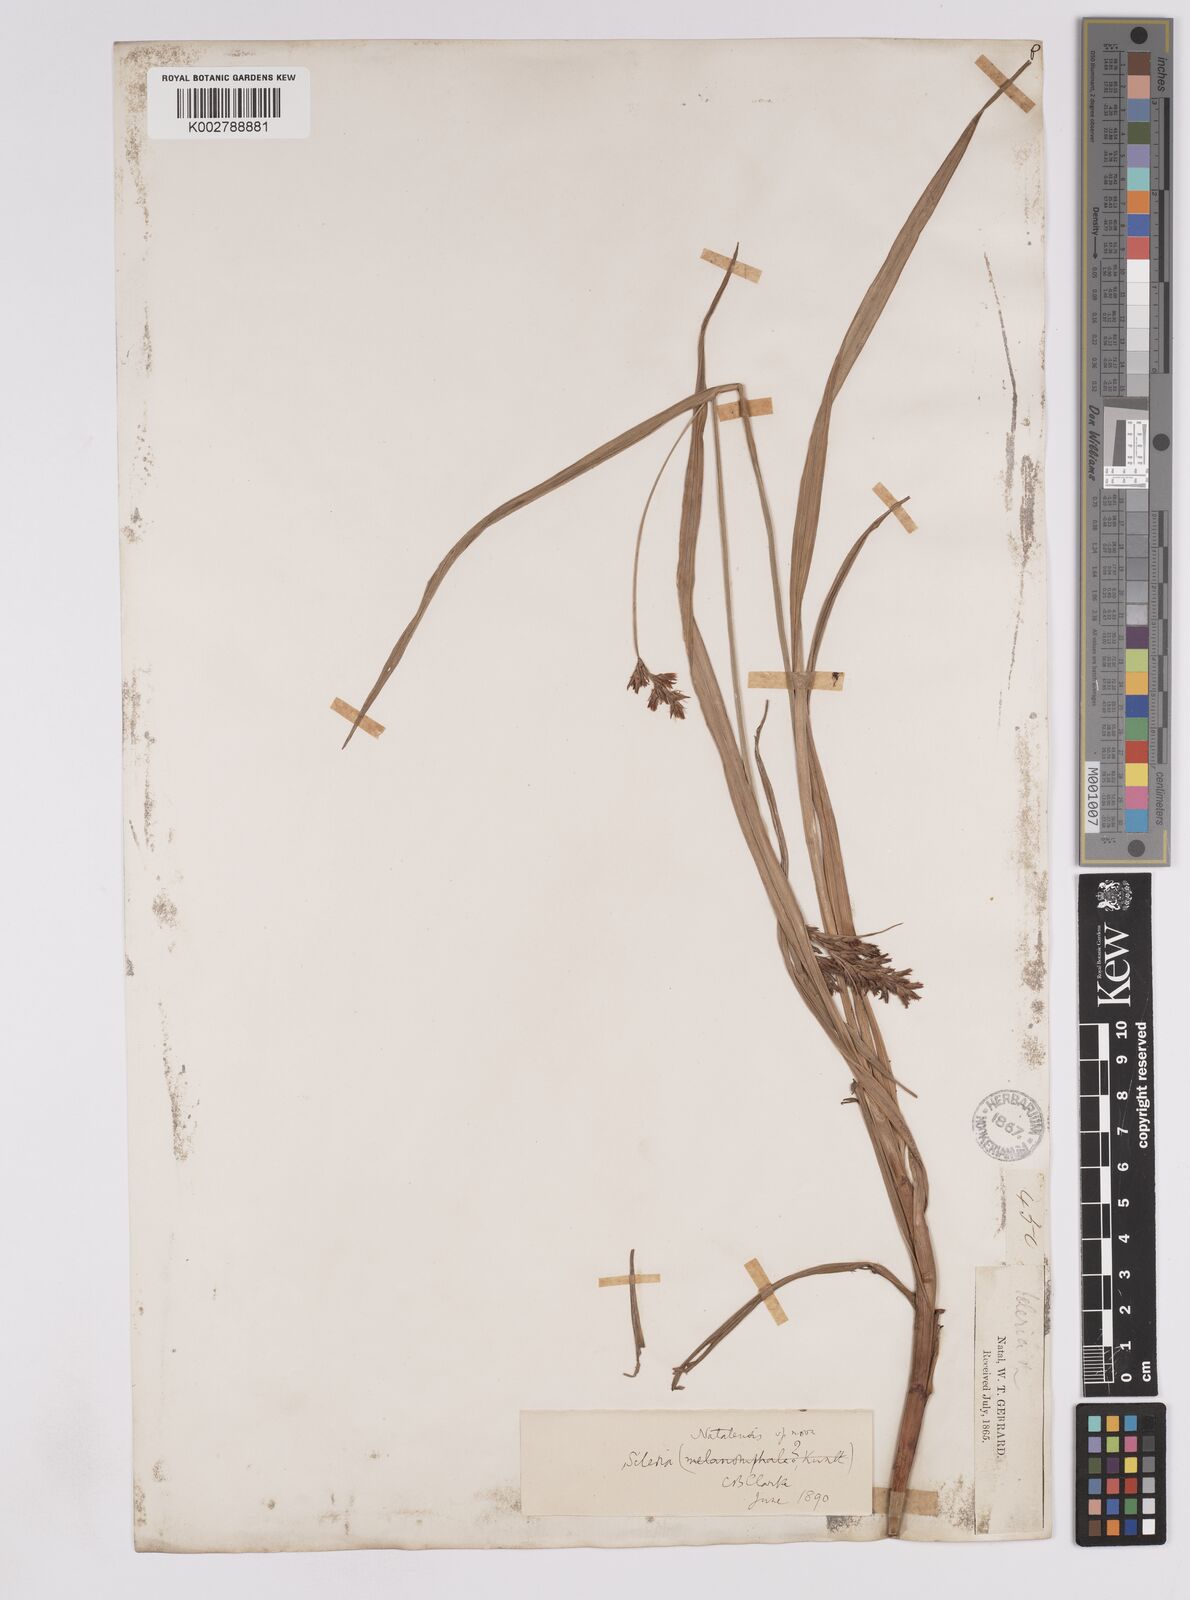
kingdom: Plantae
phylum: Tracheophyta
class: Liliopsida
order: Poales
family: Cyperaceae
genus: Scleria
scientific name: Scleria natalensis
